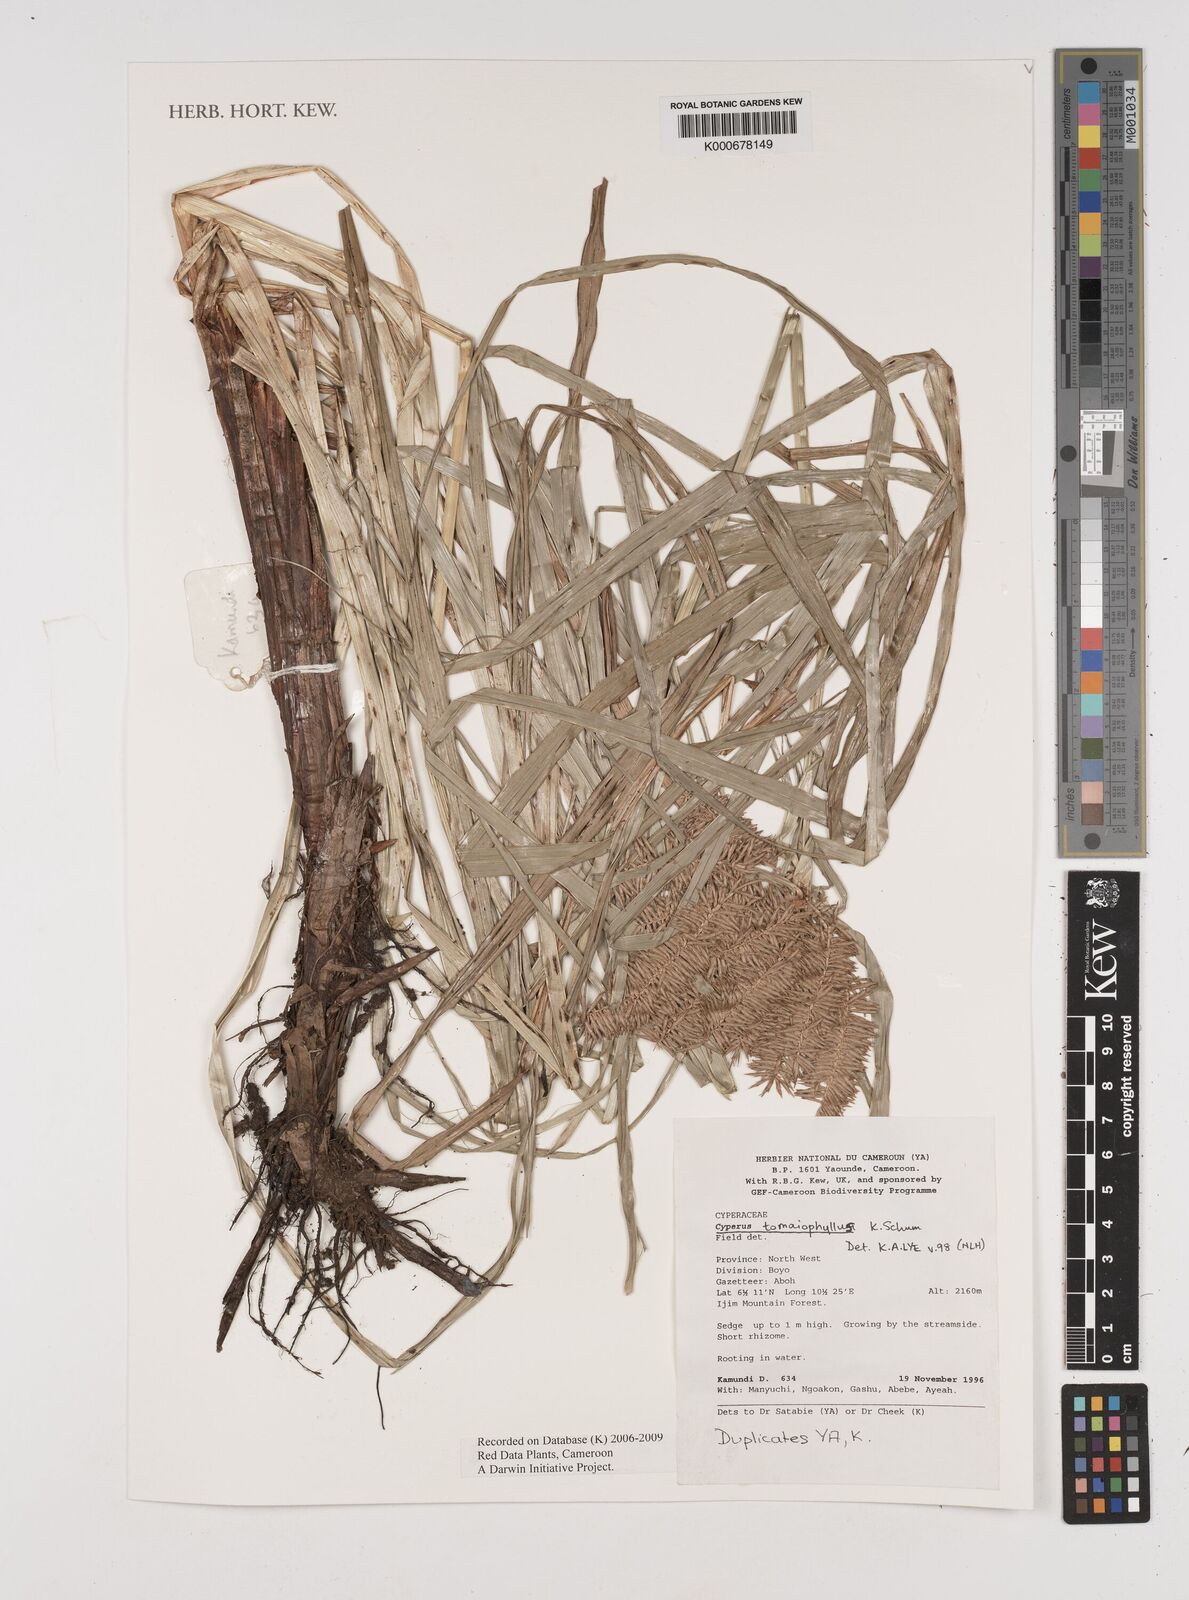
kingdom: Plantae
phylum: Tracheophyta
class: Liliopsida
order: Poales
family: Cyperaceae
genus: Cyperus
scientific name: Cyperus tomaiophyllus
